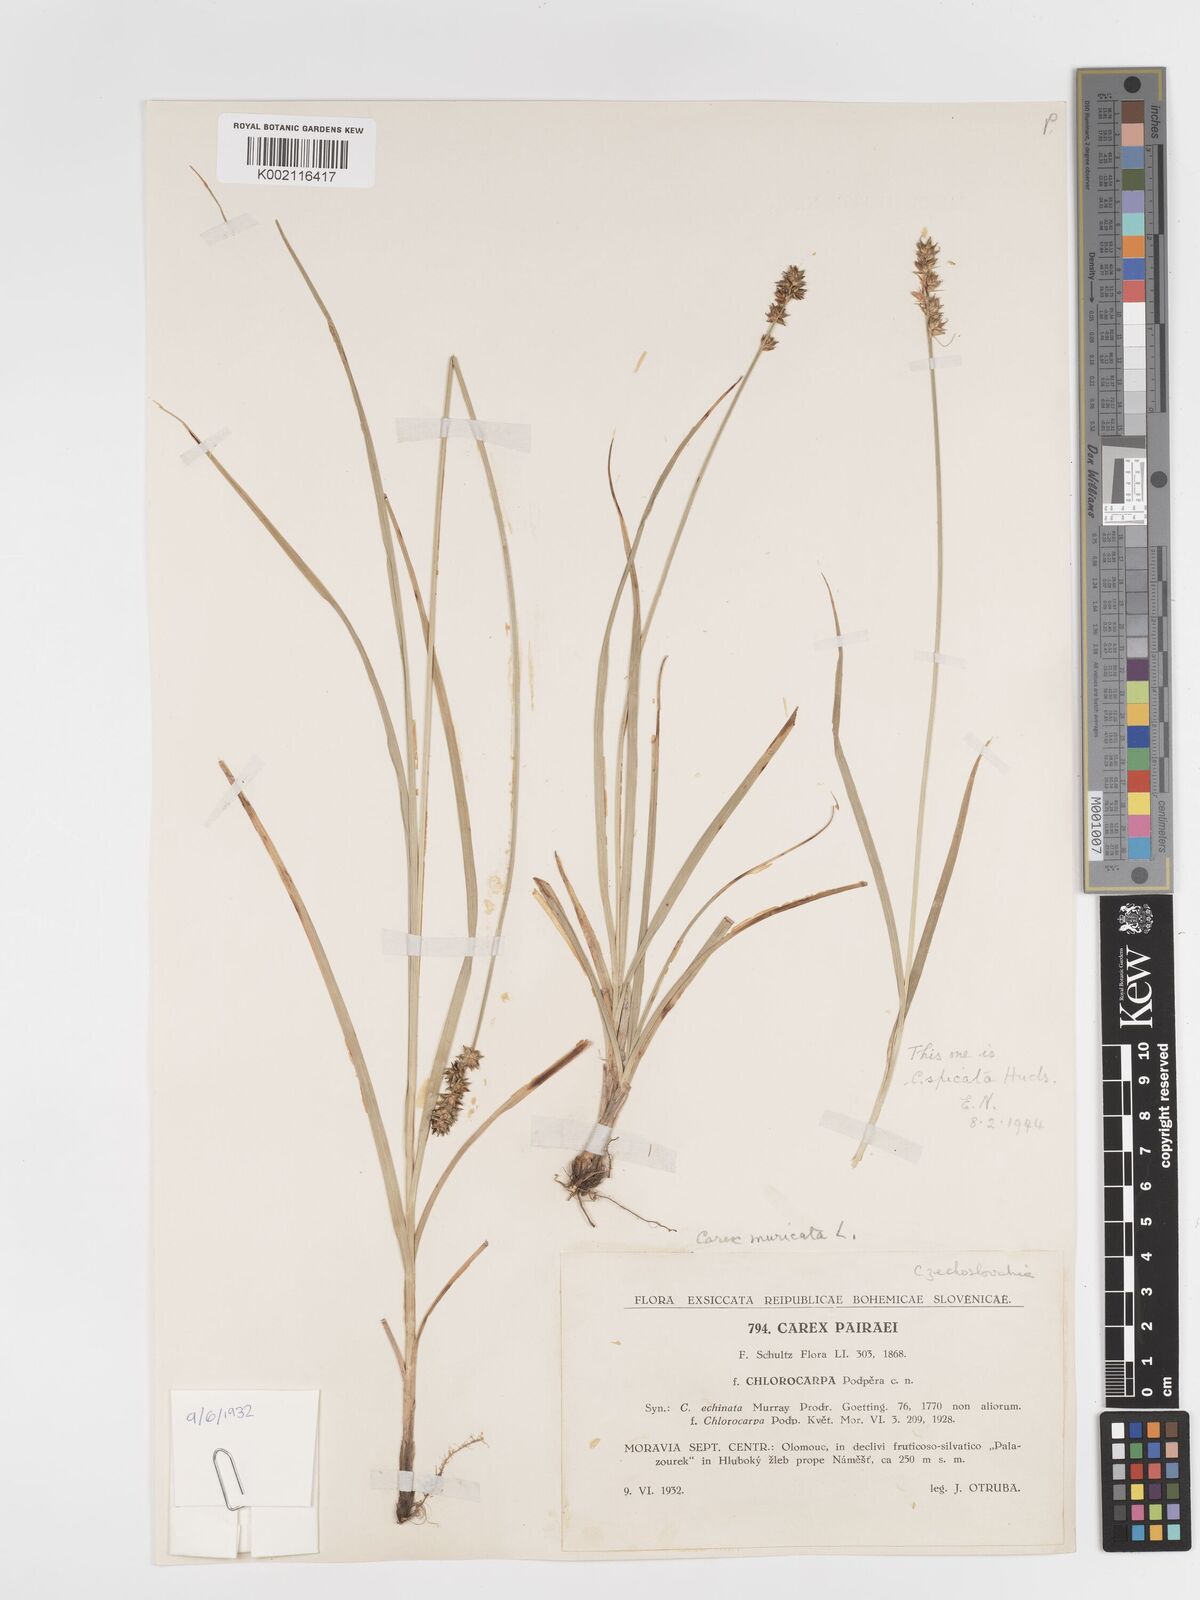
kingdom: Plantae
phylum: Tracheophyta
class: Liliopsida
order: Poales
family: Cyperaceae
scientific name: Cyperaceae
